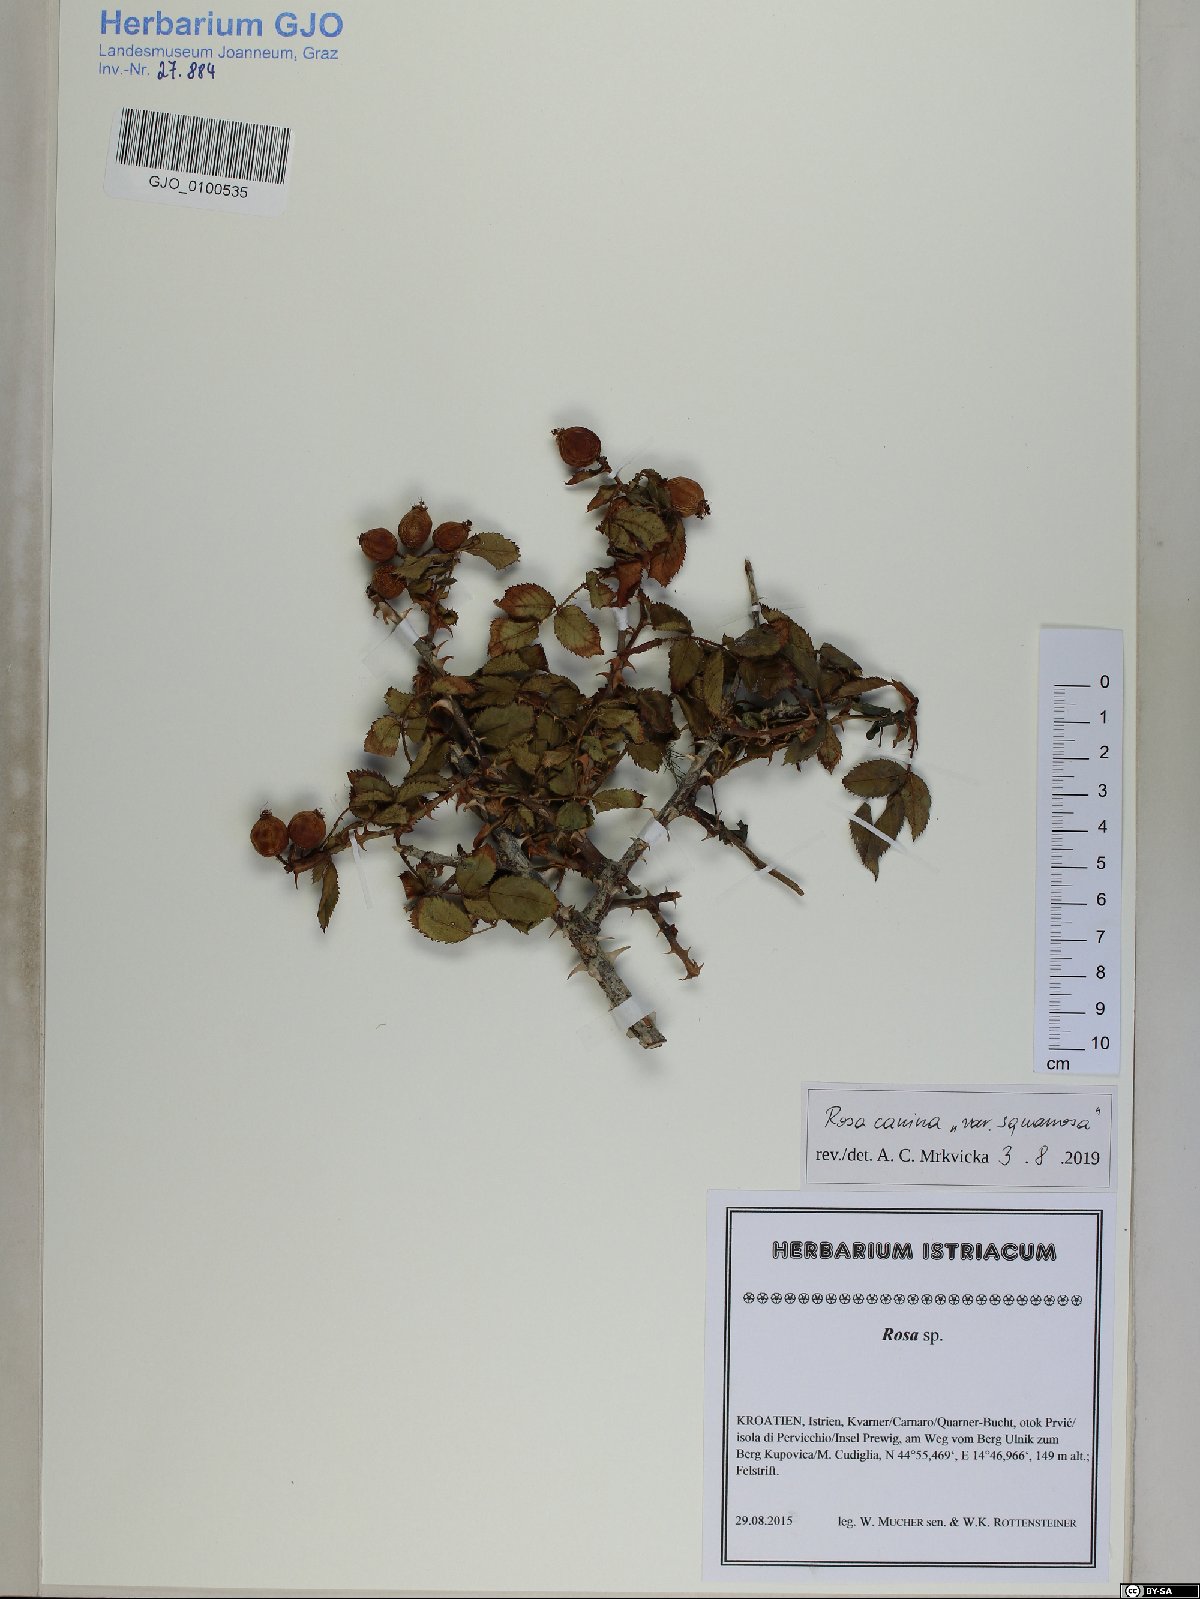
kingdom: Plantae
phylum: Tracheophyta
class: Magnoliopsida
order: Rosales
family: Rosaceae
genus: Rosa
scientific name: Rosa canina
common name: Dog rose
